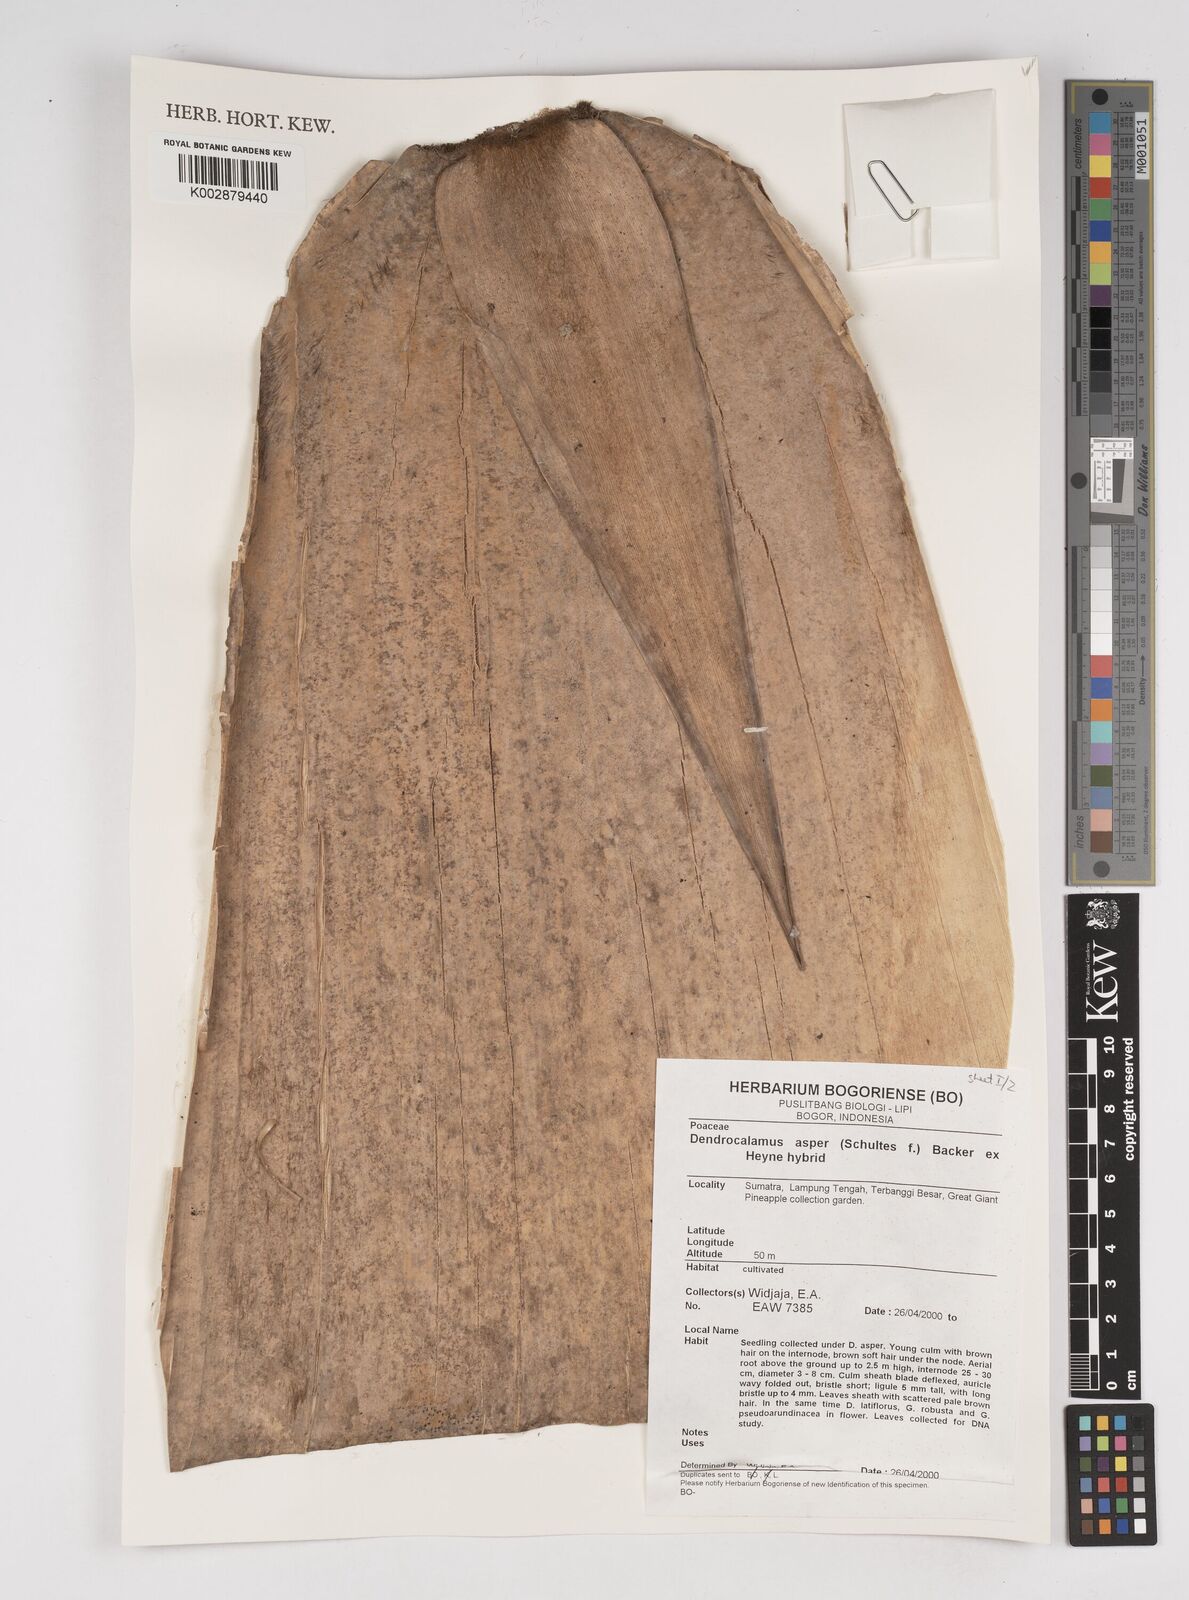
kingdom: Plantae
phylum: Tracheophyta
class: Liliopsida
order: Poales
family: Poaceae
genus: Dendrocalamus
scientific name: Dendrocalamus asper
